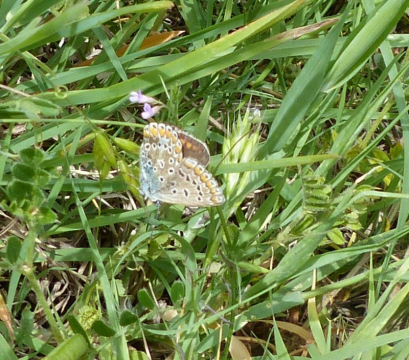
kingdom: Animalia
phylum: Arthropoda
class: Insecta
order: Lepidoptera
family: Lycaenidae
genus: Aricia
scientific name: Aricia agestis
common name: Brown Argus
